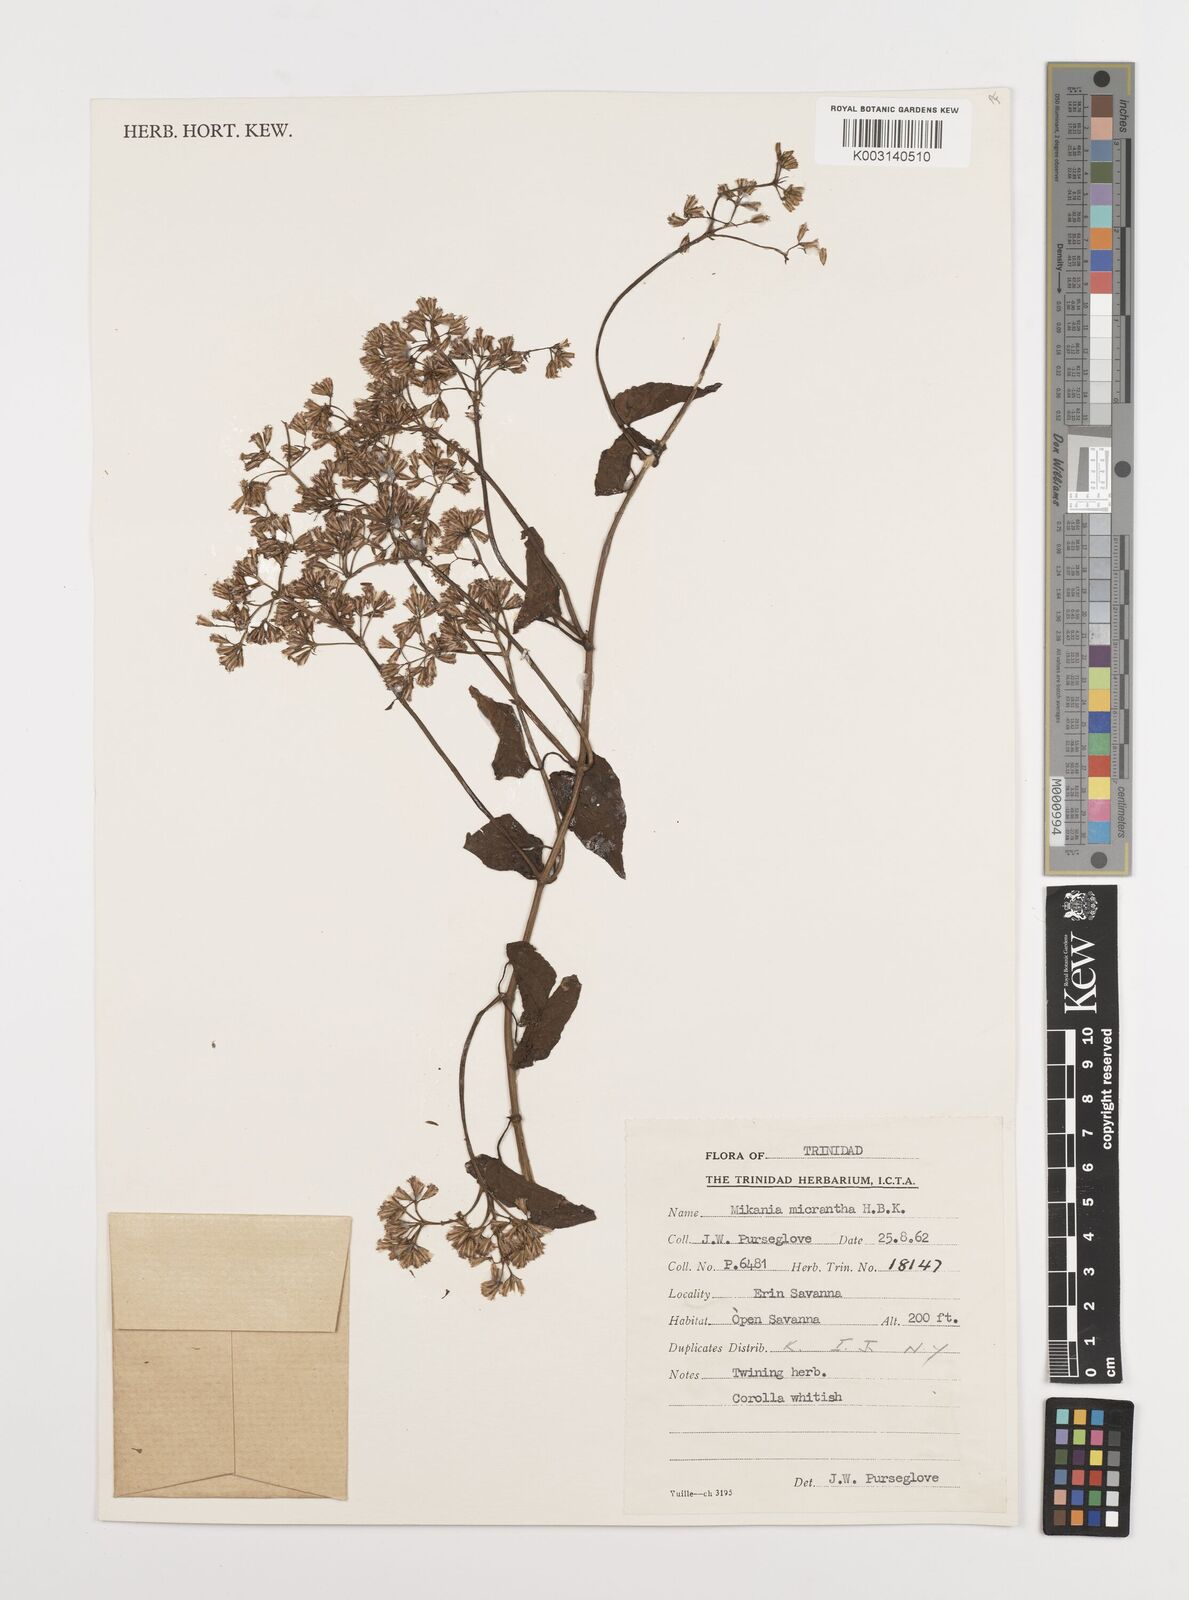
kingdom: Plantae
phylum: Tracheophyta
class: Magnoliopsida
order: Asterales
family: Asteraceae
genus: Mikania
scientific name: Mikania micrantha
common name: Mile-a-minute
